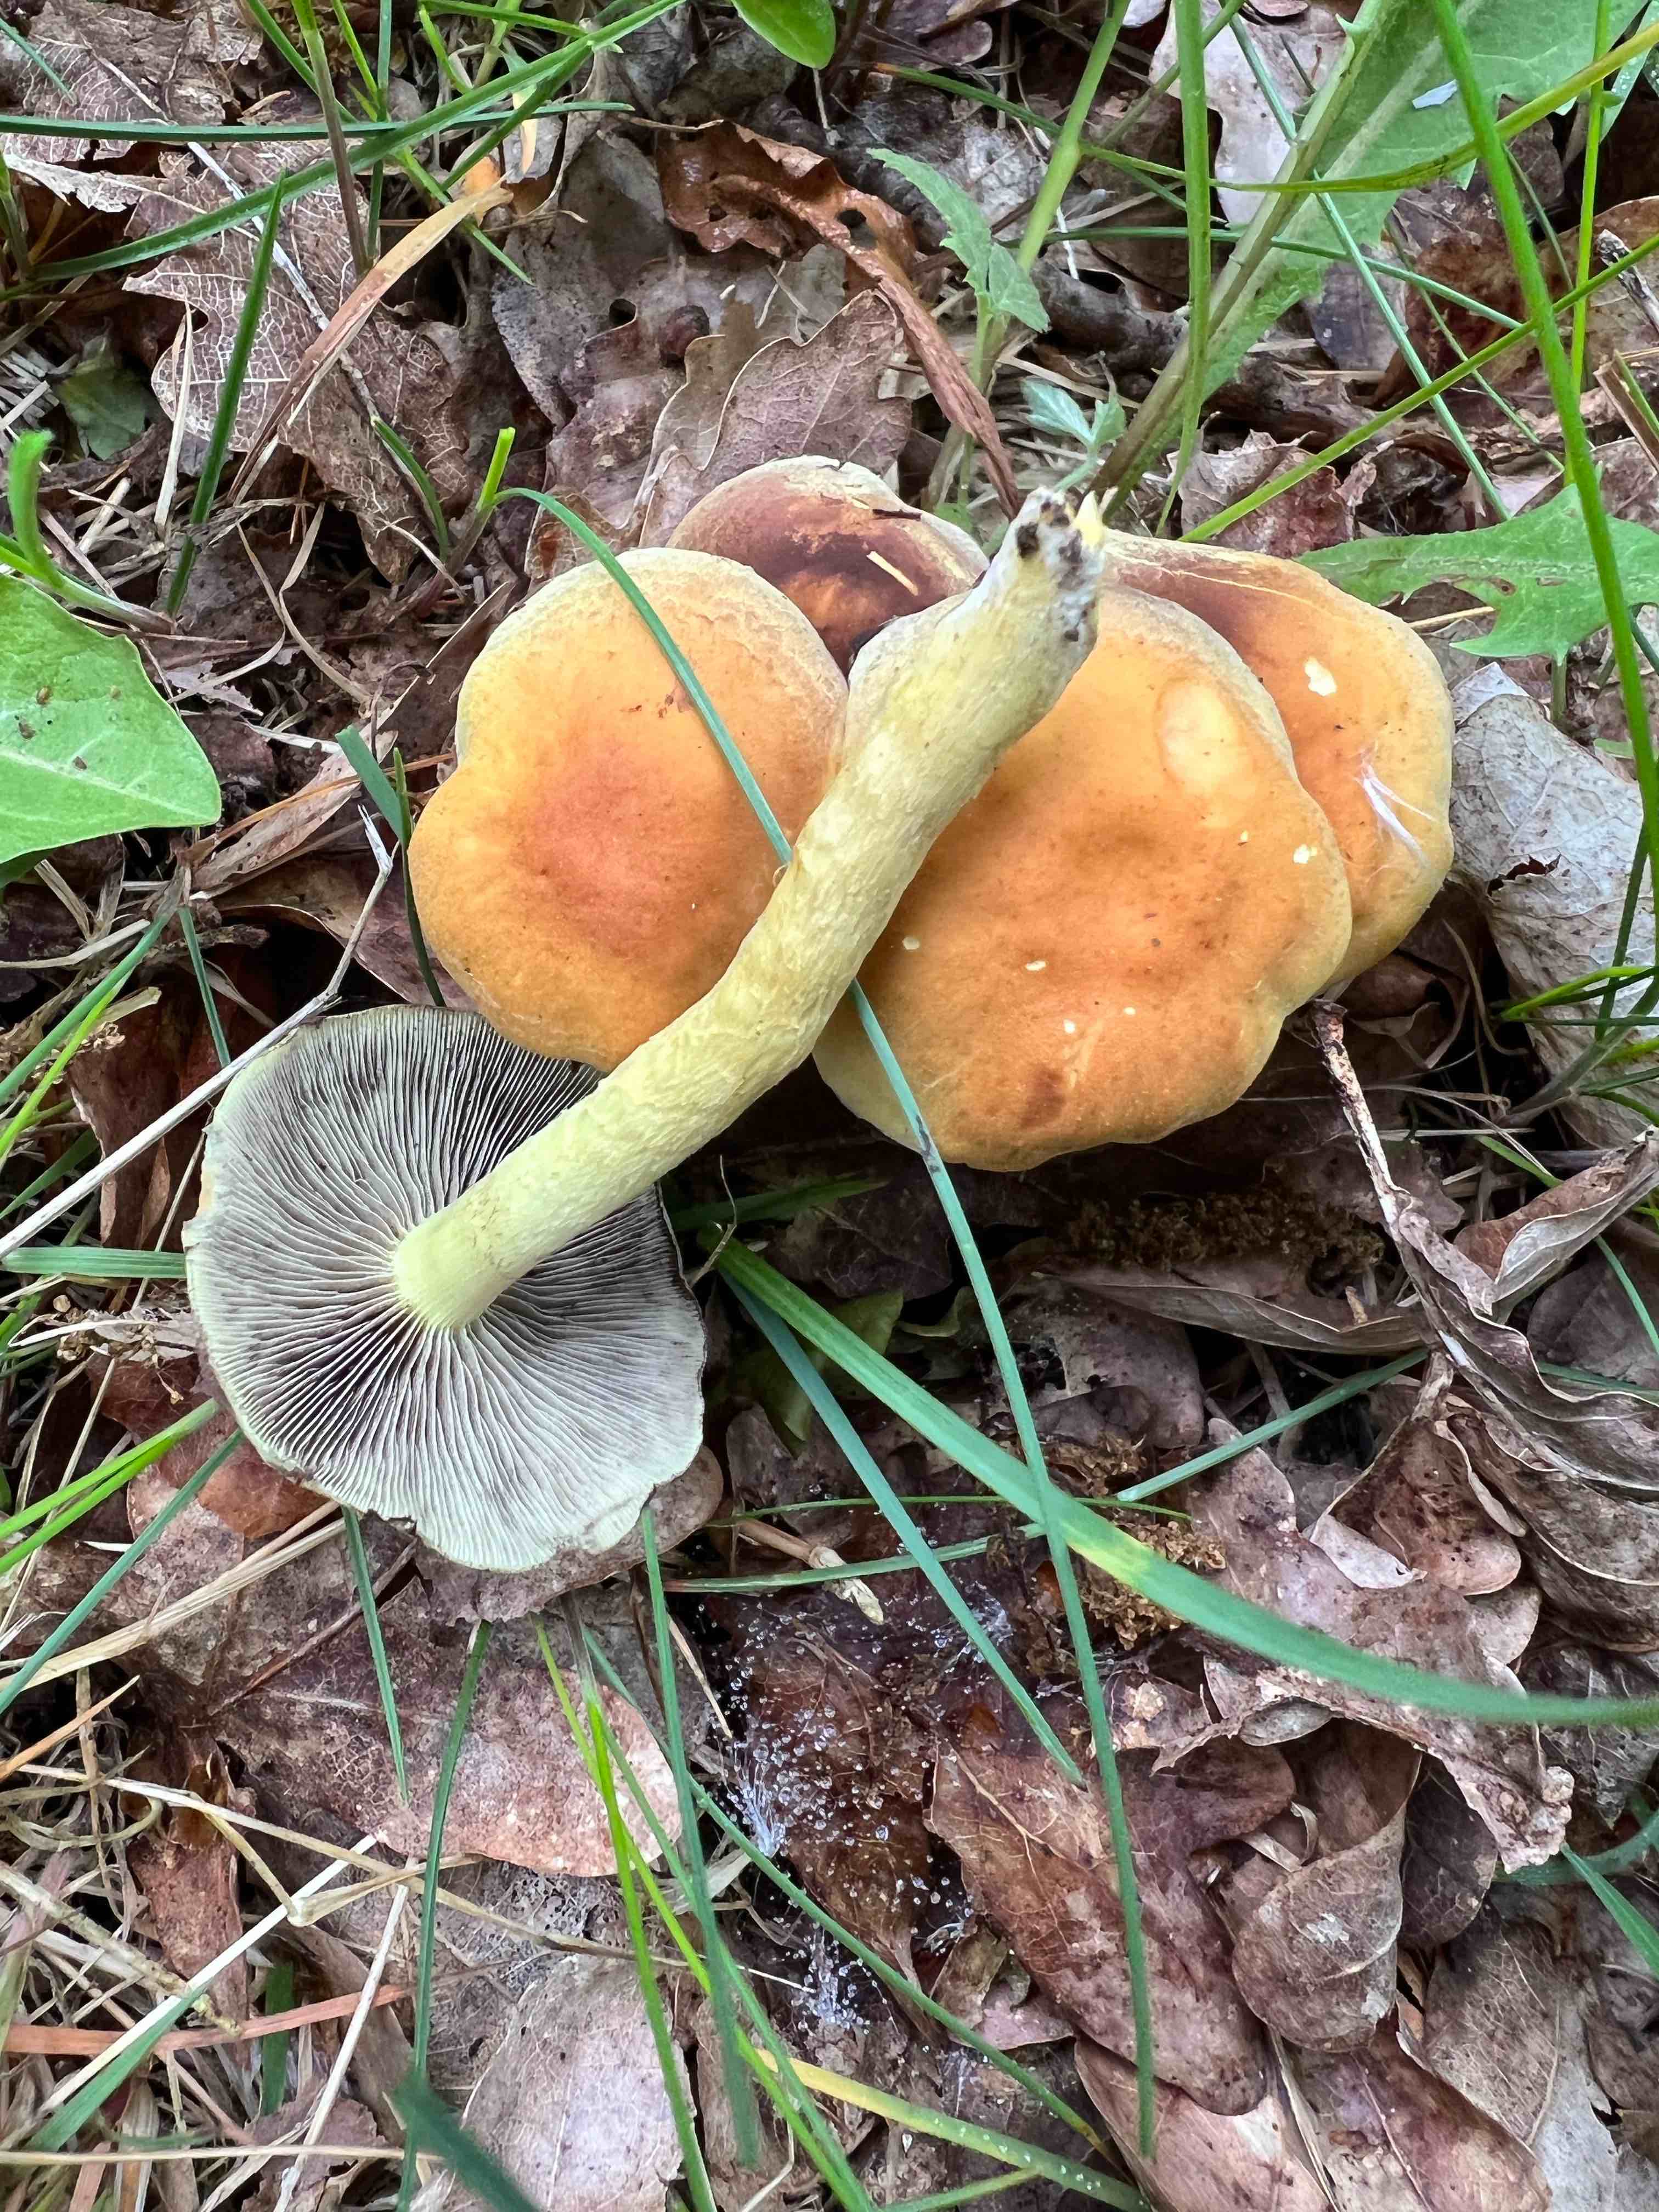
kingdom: Fungi
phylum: Basidiomycota
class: Agaricomycetes
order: Agaricales
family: Strophariaceae
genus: Hypholoma
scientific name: Hypholoma fasciculare
